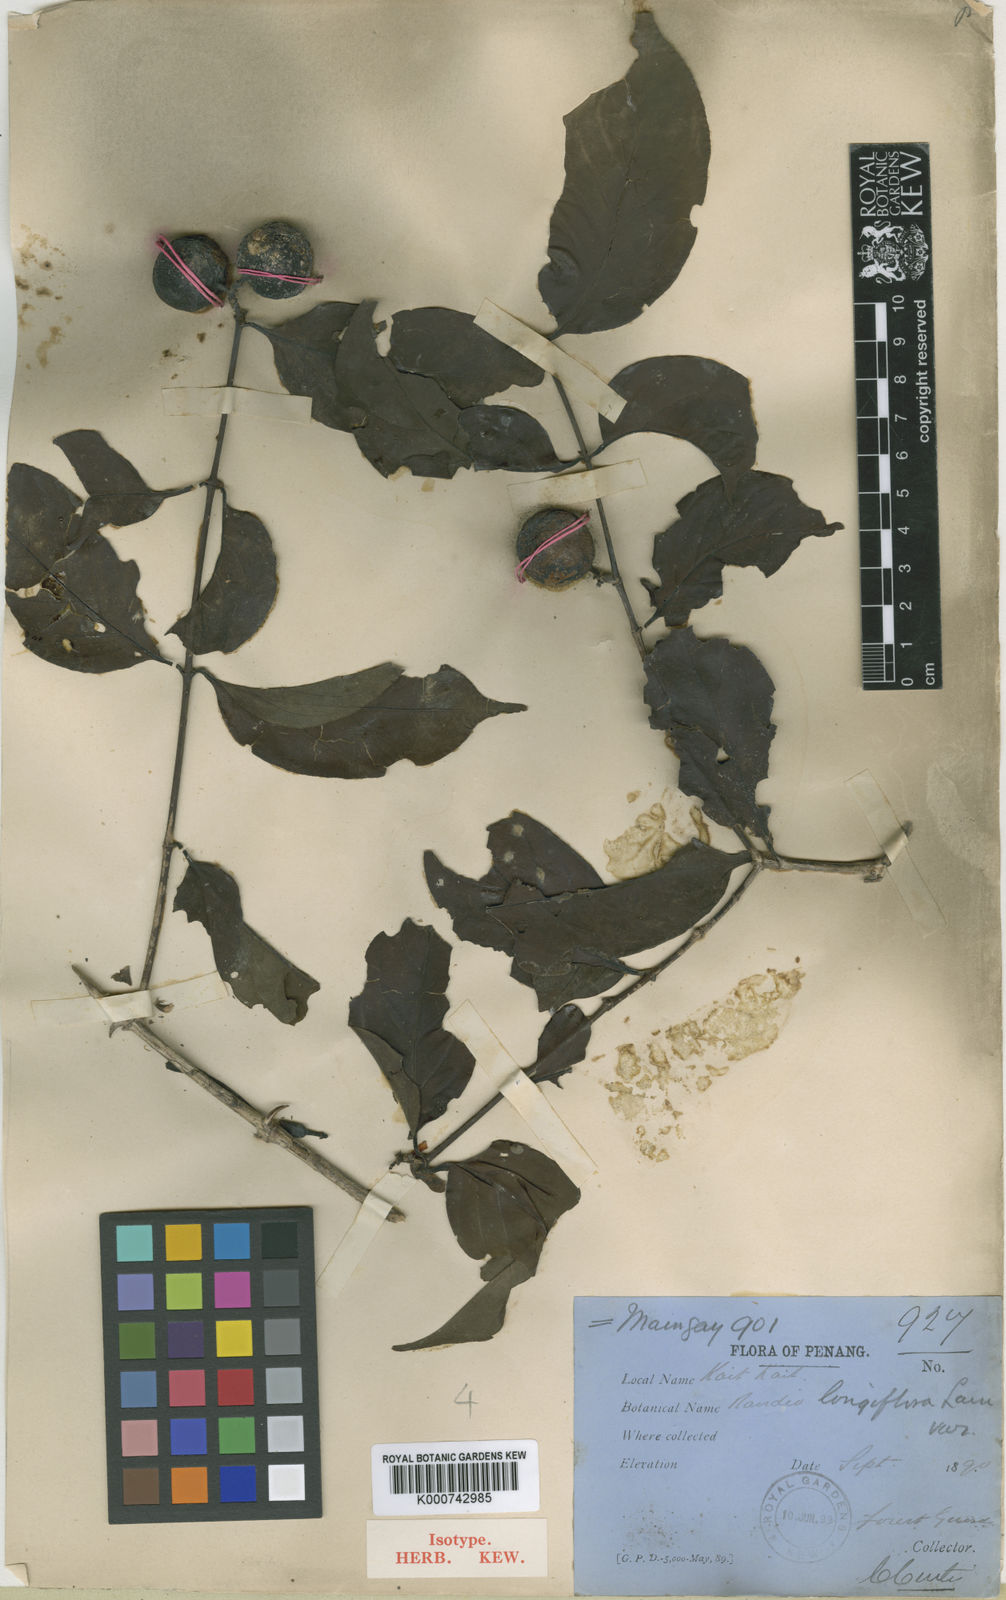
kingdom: Plantae
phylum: Tracheophyta
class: Magnoliopsida
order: Gentianales
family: Rubiaceae
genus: Oxyceros
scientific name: Oxyceros penangianus
